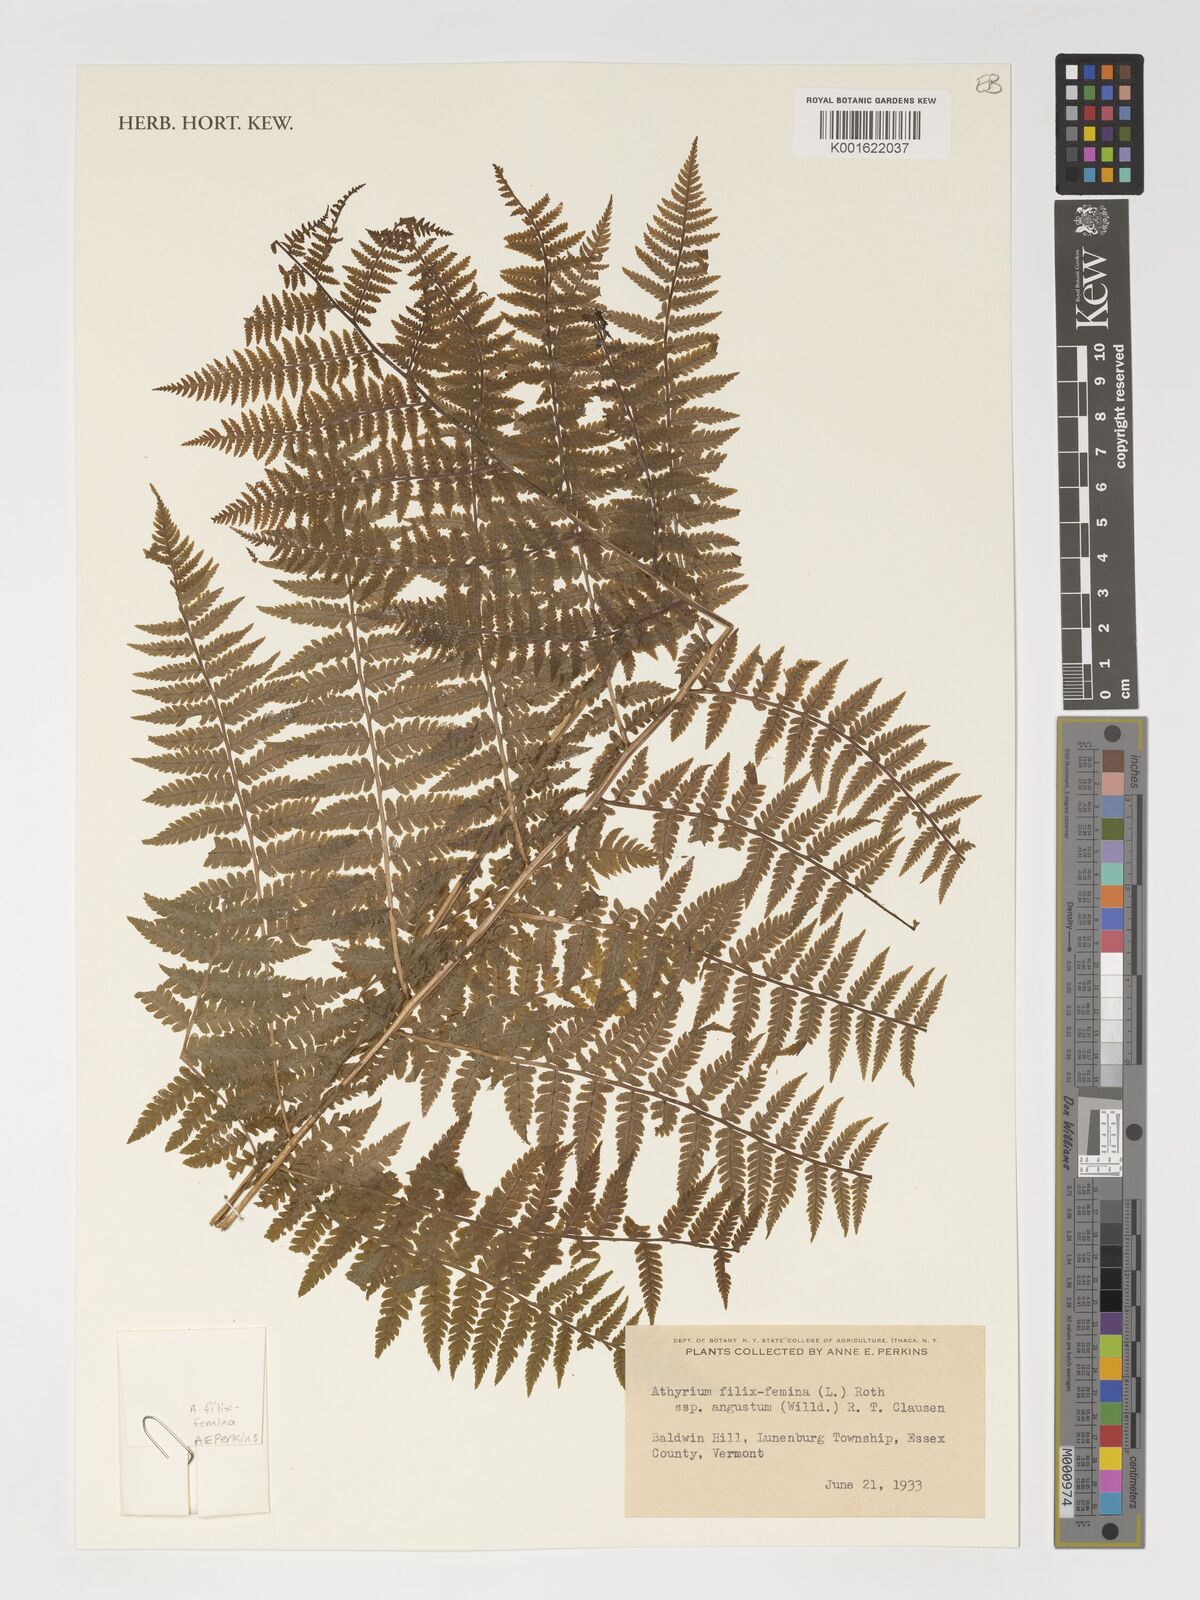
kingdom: Plantae
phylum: Tracheophyta
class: Polypodiopsida
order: Polypodiales
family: Athyriaceae
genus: Athyrium
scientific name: Athyrium angustum
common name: Northern lady fern
